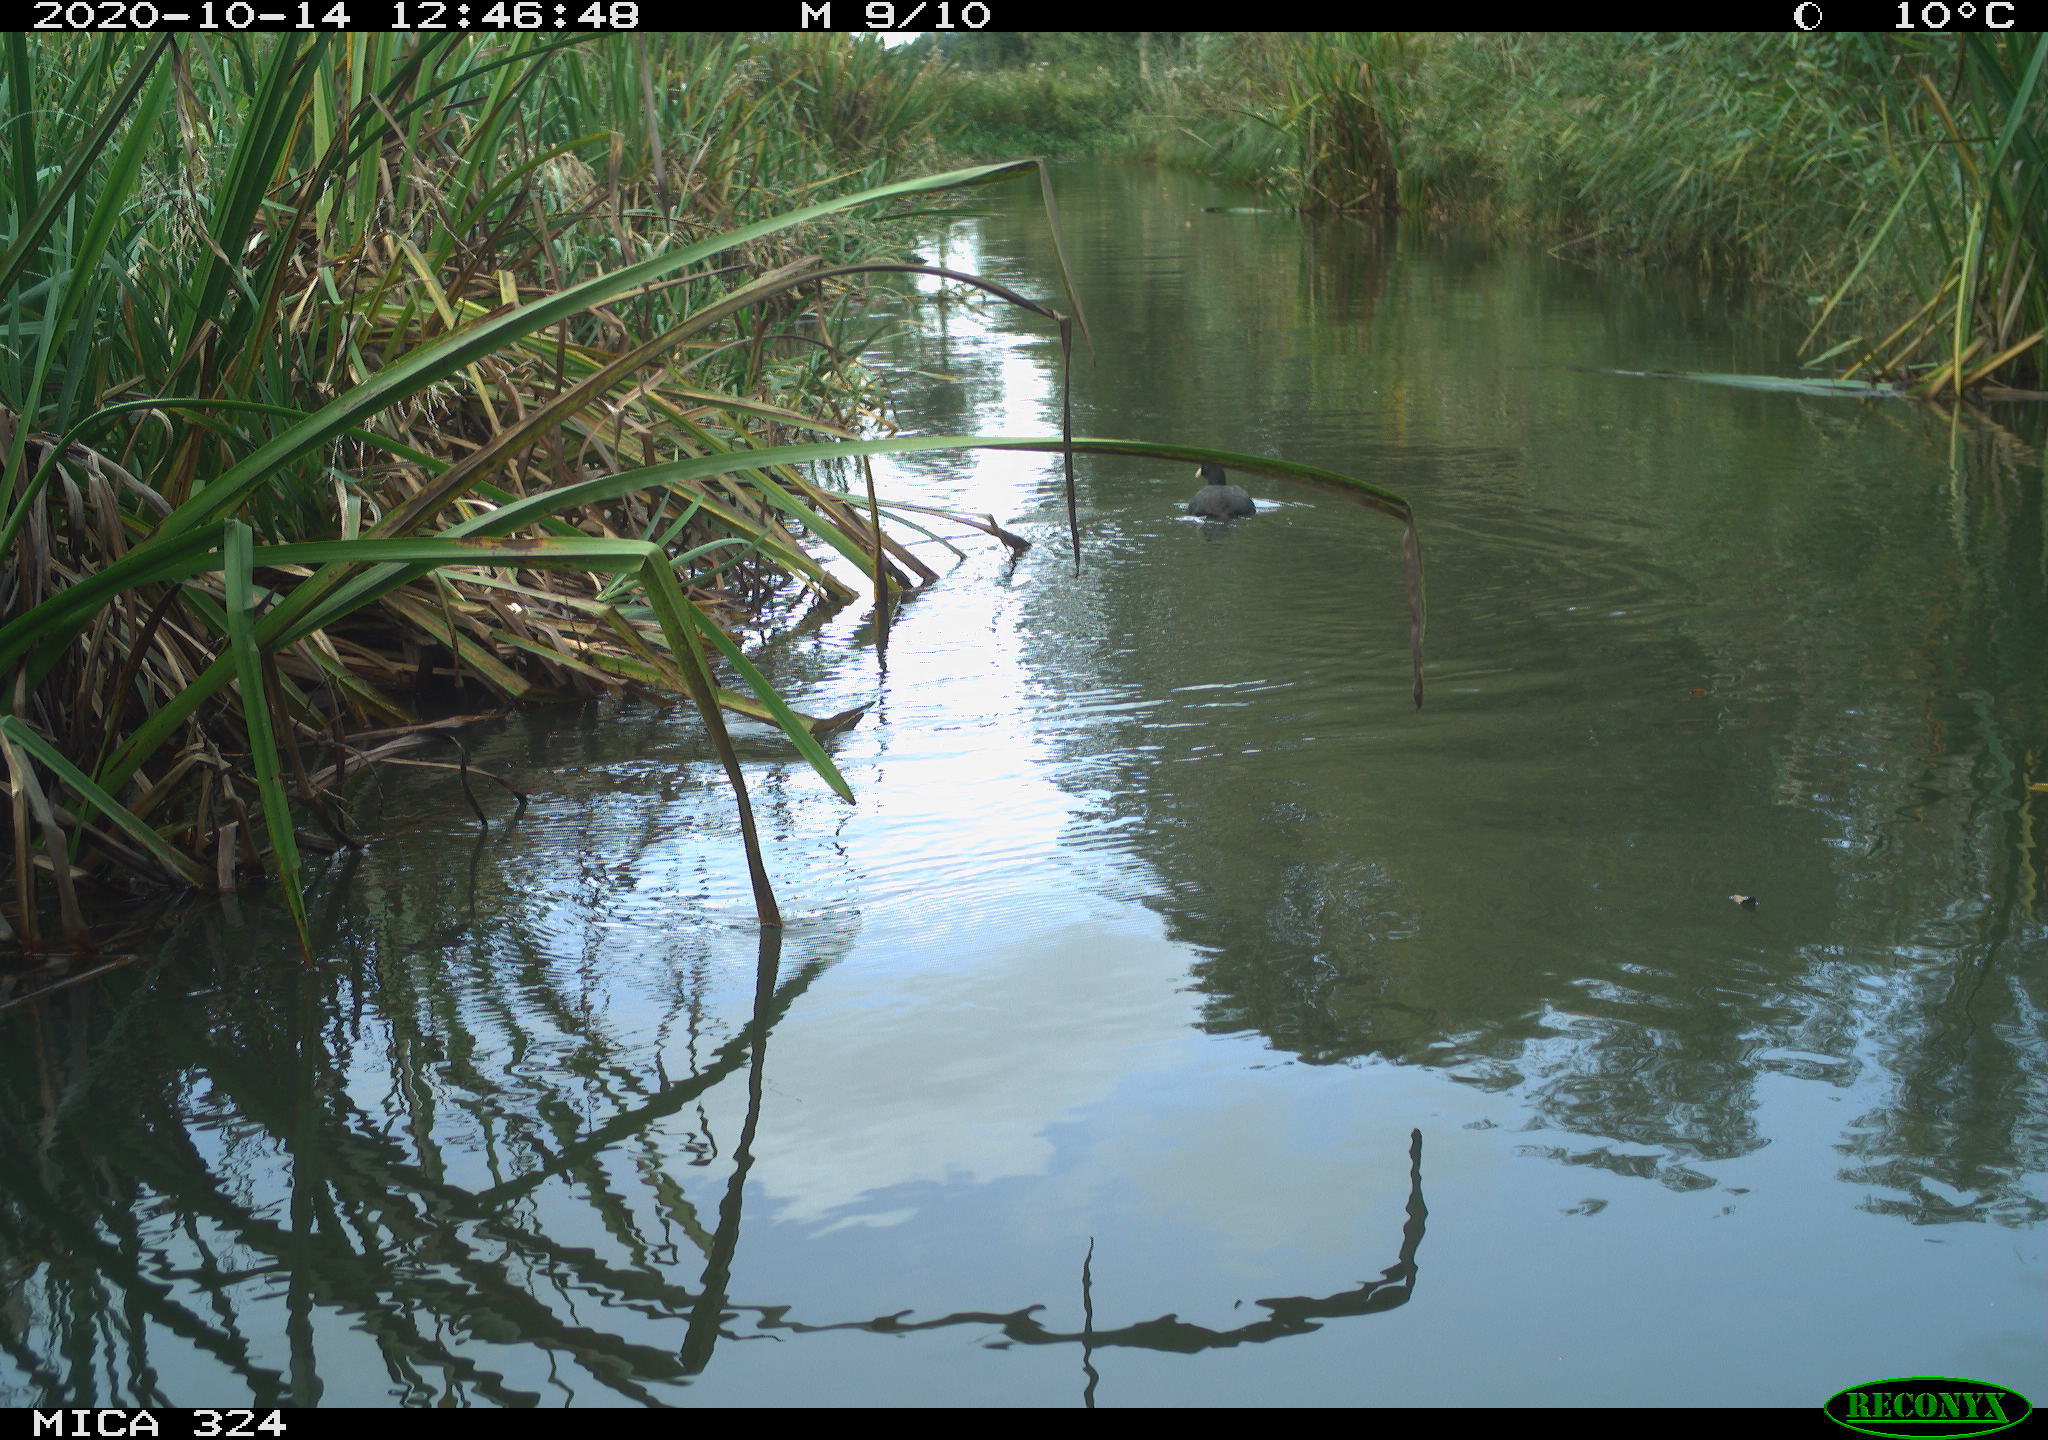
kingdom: Animalia
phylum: Chordata
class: Aves
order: Gruiformes
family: Rallidae
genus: Fulica
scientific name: Fulica atra
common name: Eurasian coot
